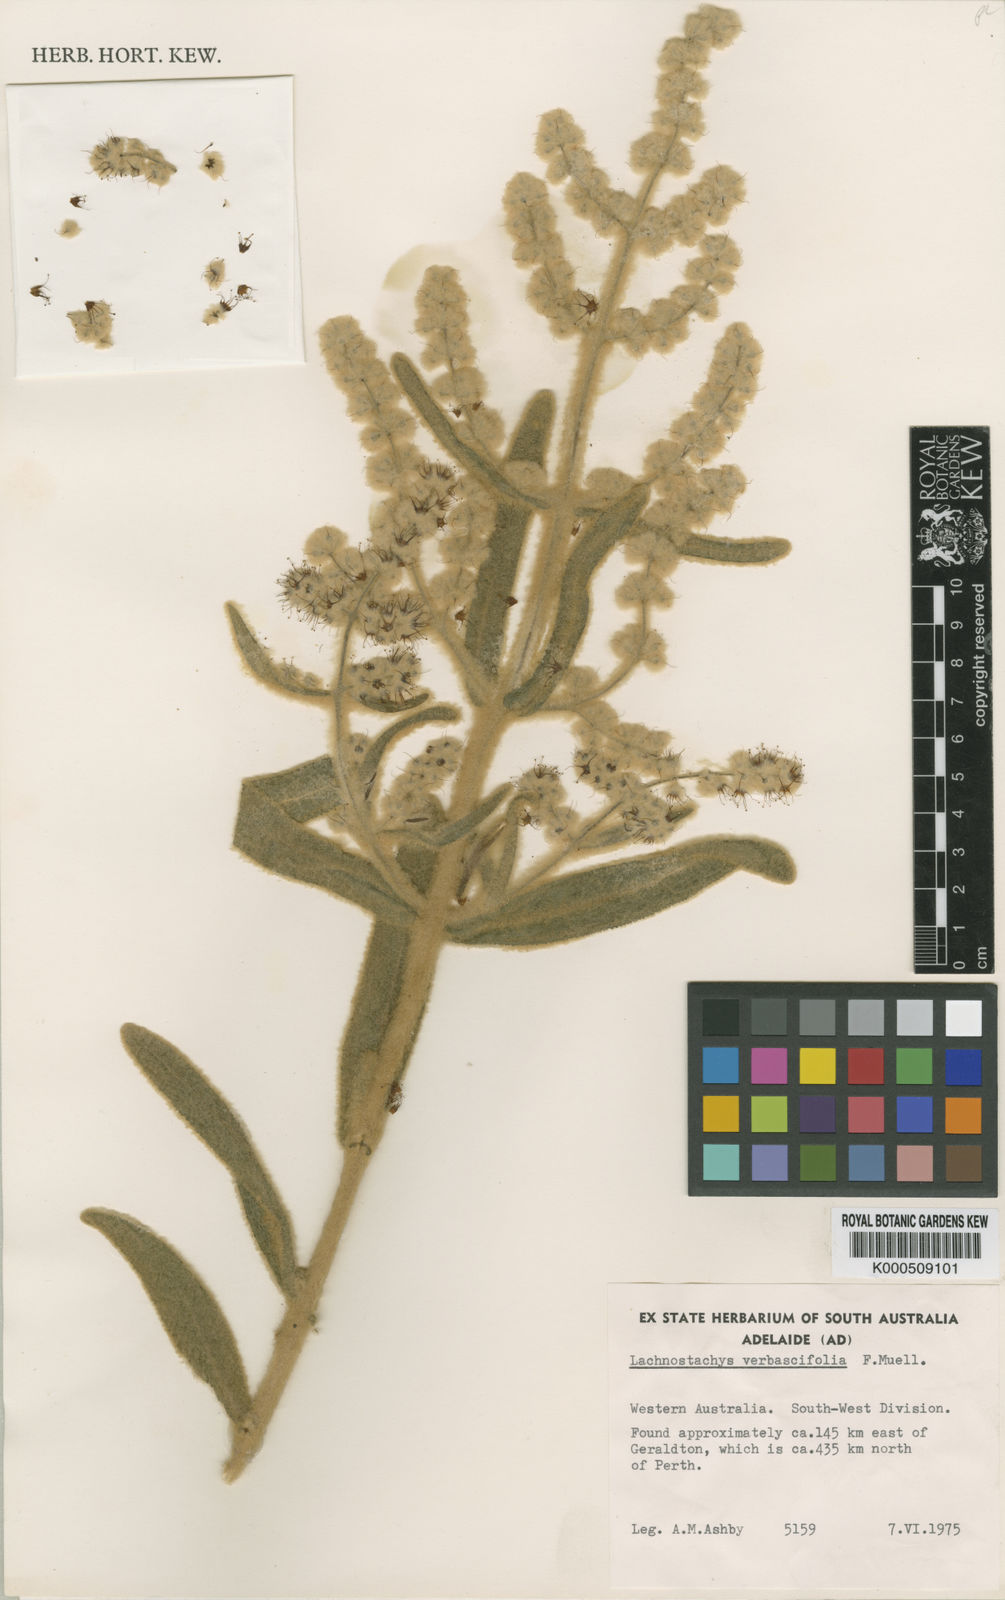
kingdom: Plantae
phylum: Tracheophyta
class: Magnoliopsida
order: Lamiales
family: Lamiaceae
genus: Lachnostachys
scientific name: Lachnostachys verbascifolia
